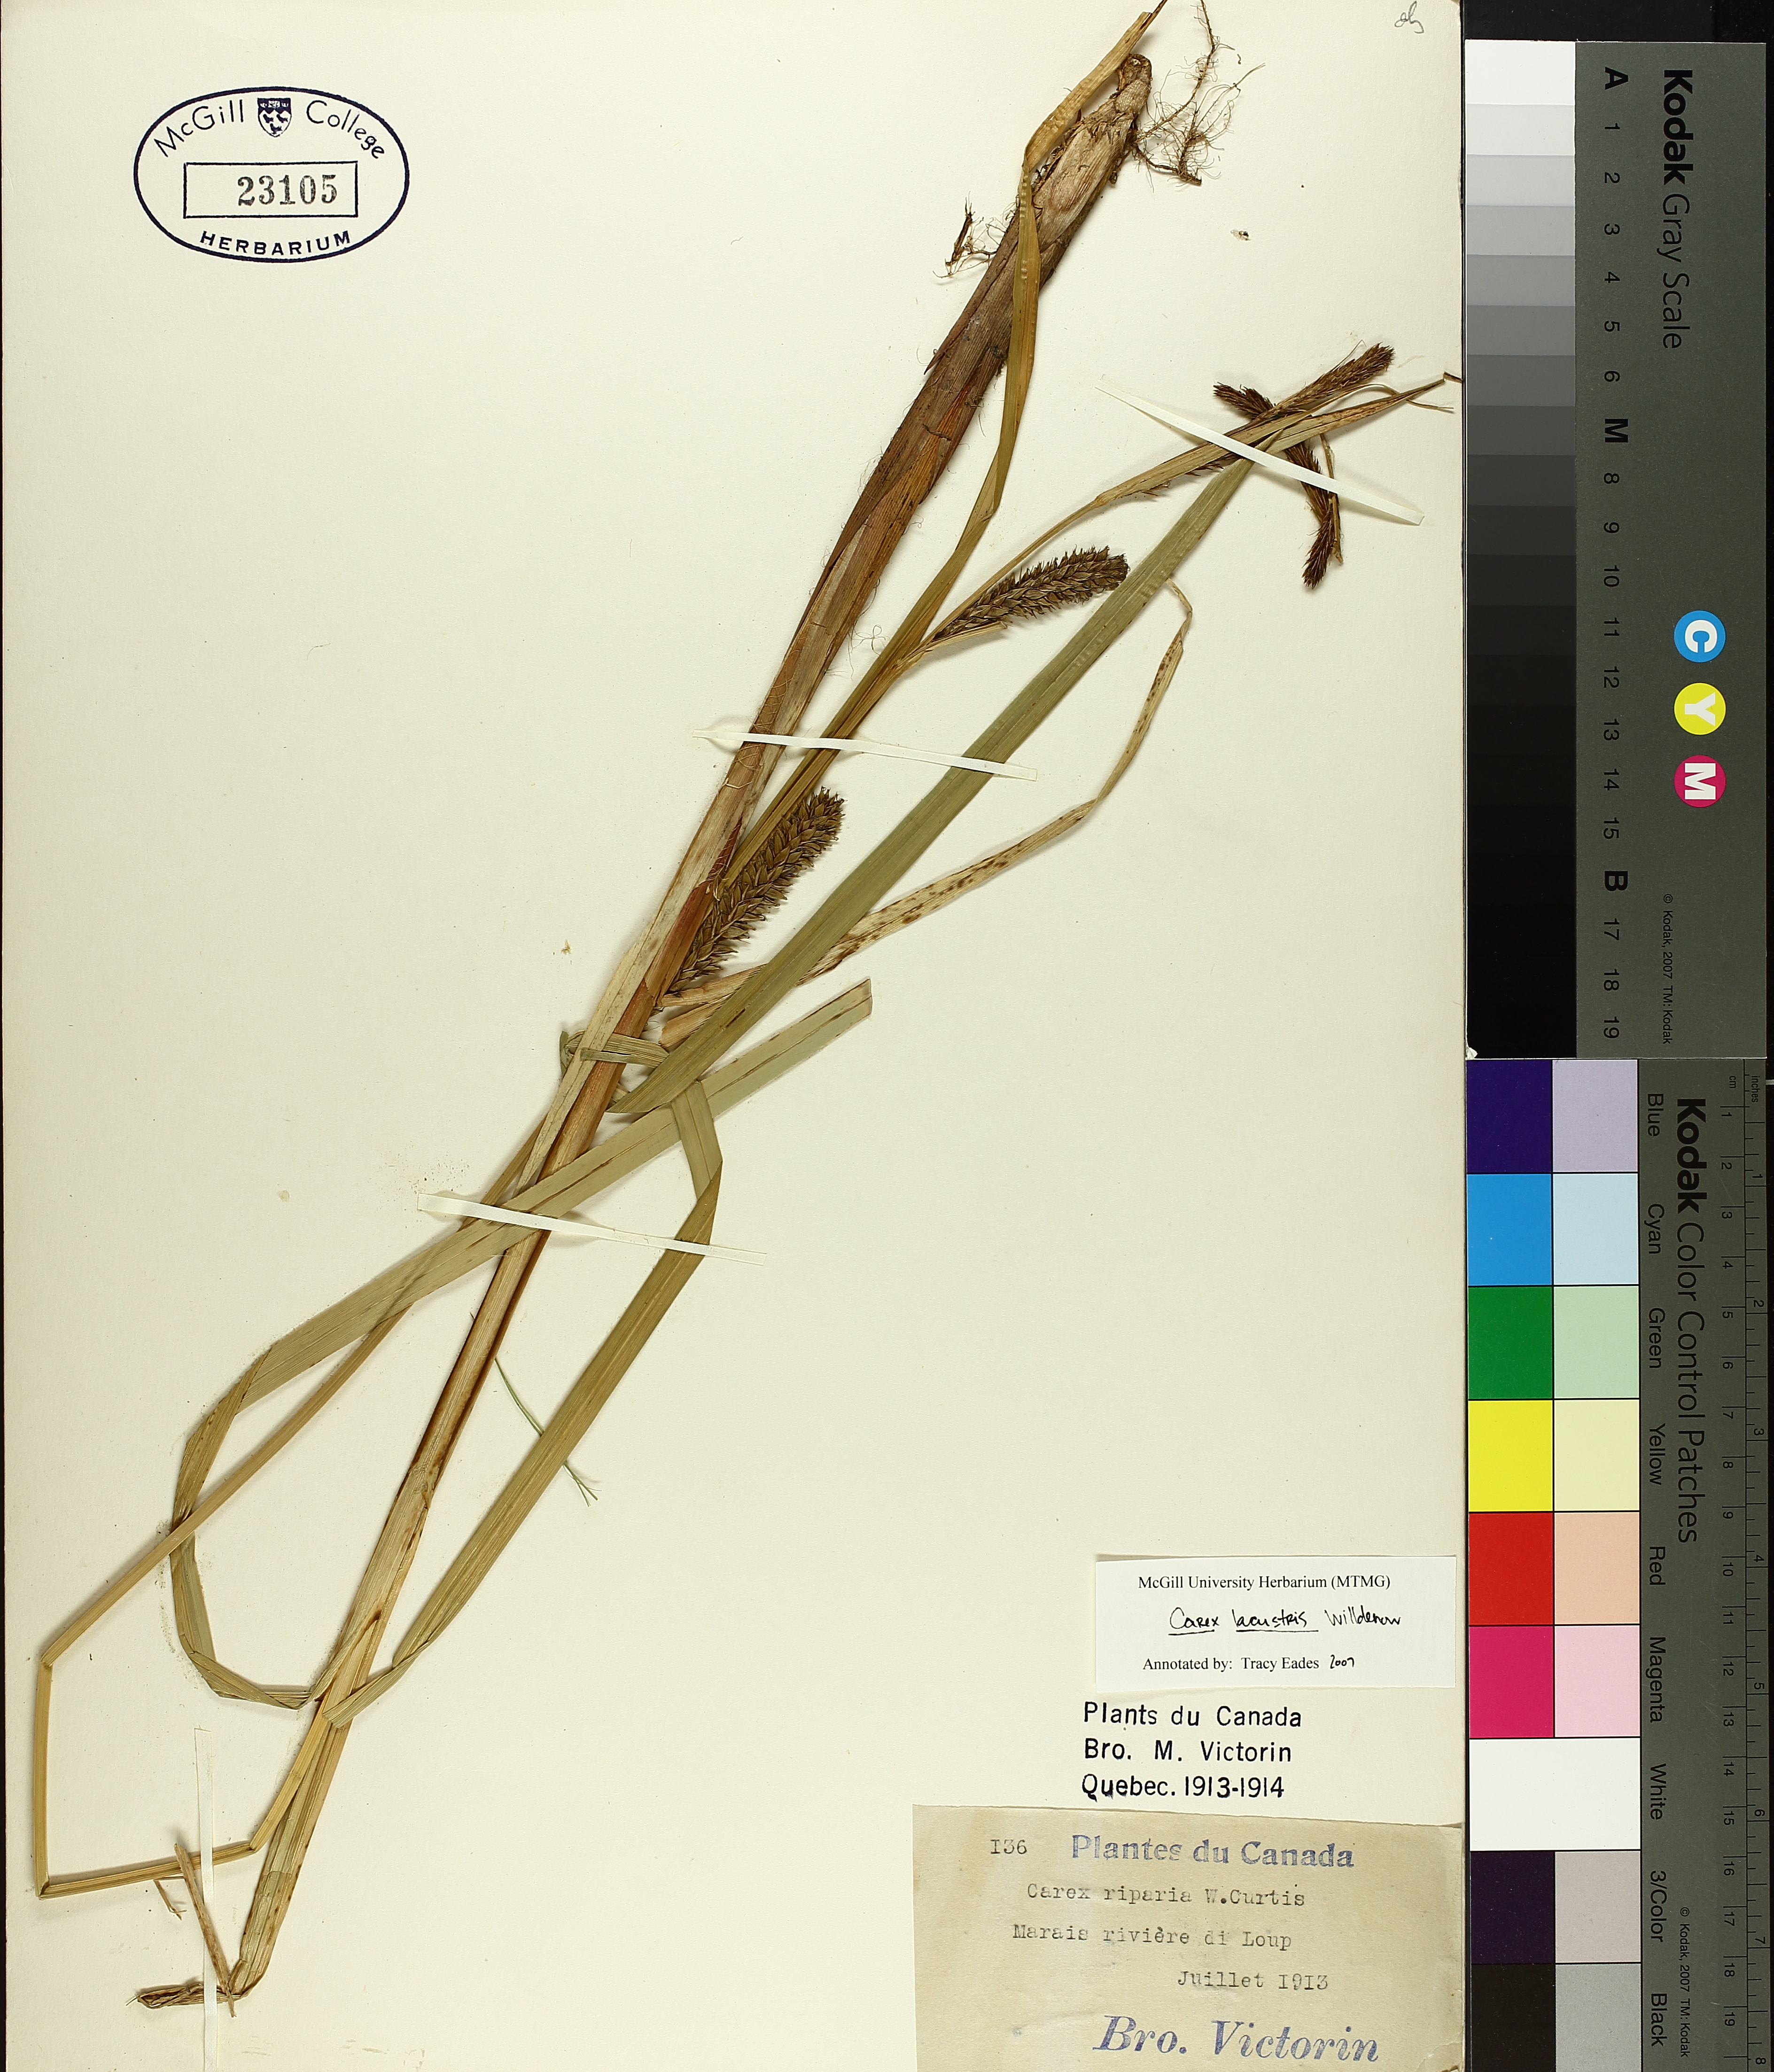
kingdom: Plantae
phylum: Tracheophyta
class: Liliopsida
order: Poales
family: Cyperaceae
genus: Carex
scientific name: Carex lacustris
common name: Common lake sedge
